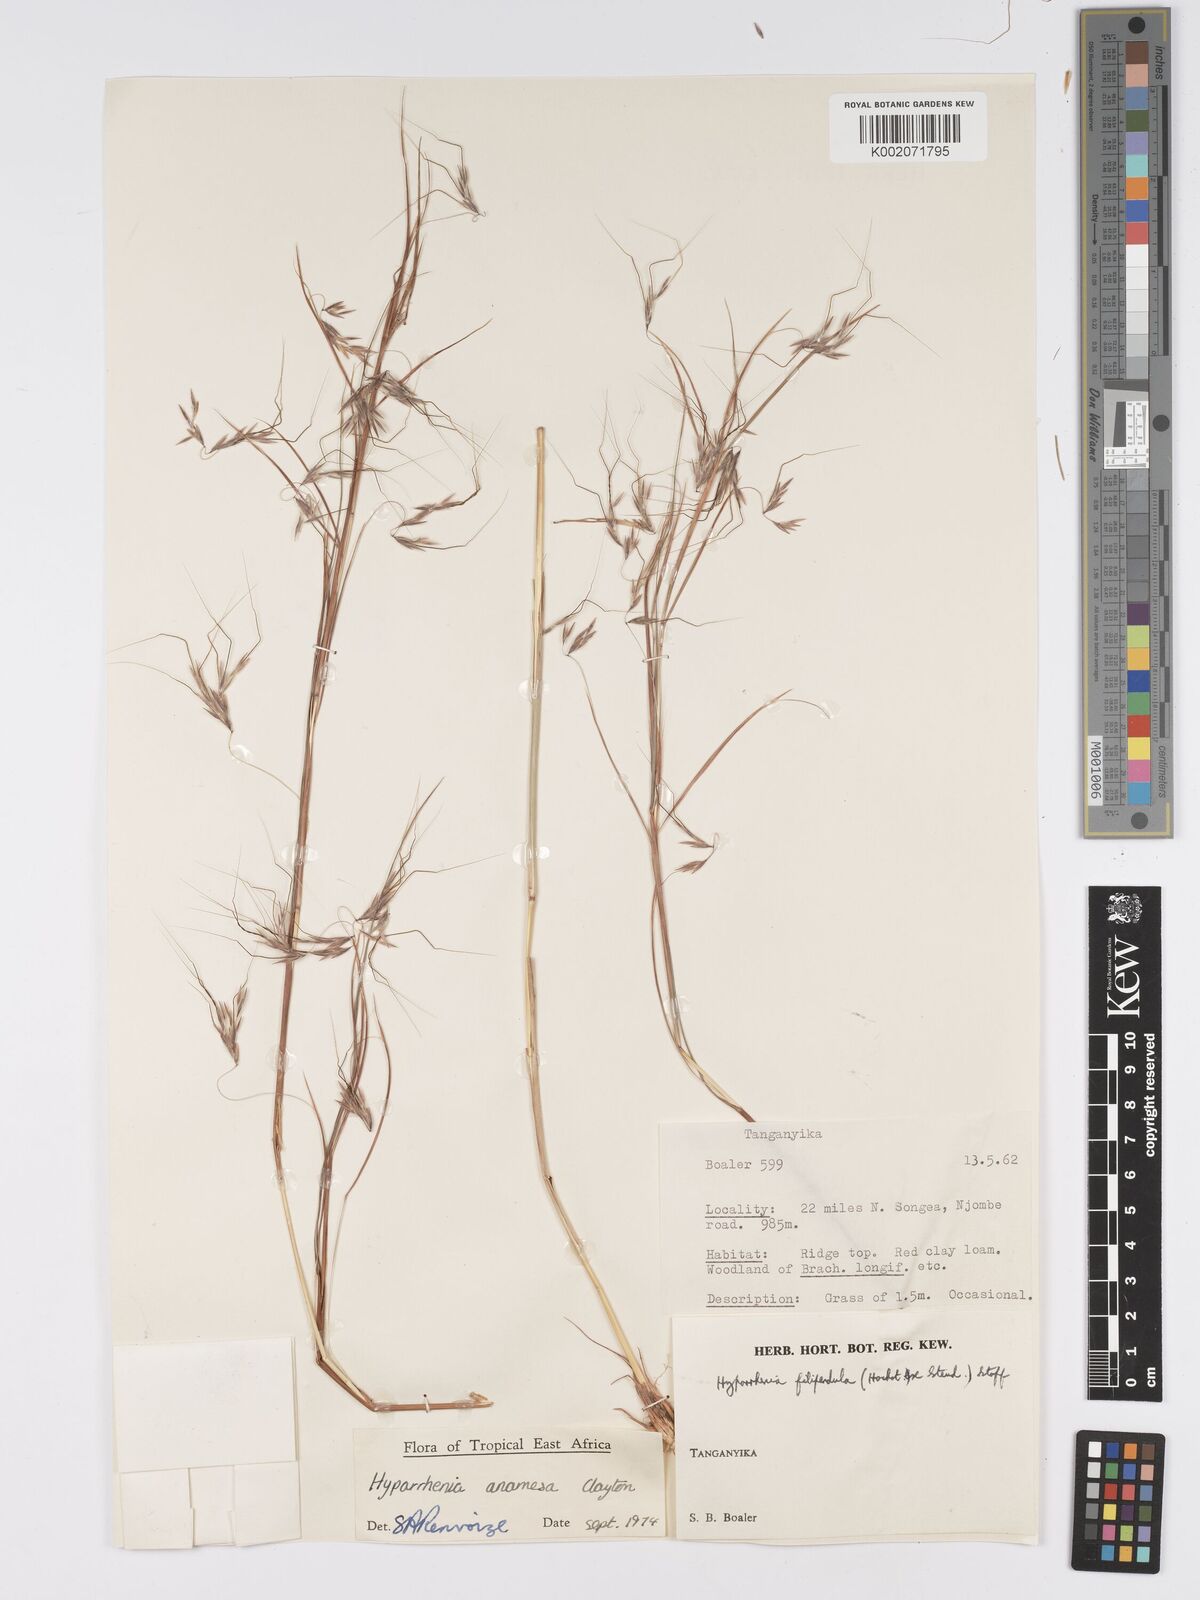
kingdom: Plantae
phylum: Tracheophyta
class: Liliopsida
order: Poales
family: Poaceae
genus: Hyparrhenia
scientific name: Hyparrhenia anamesa
